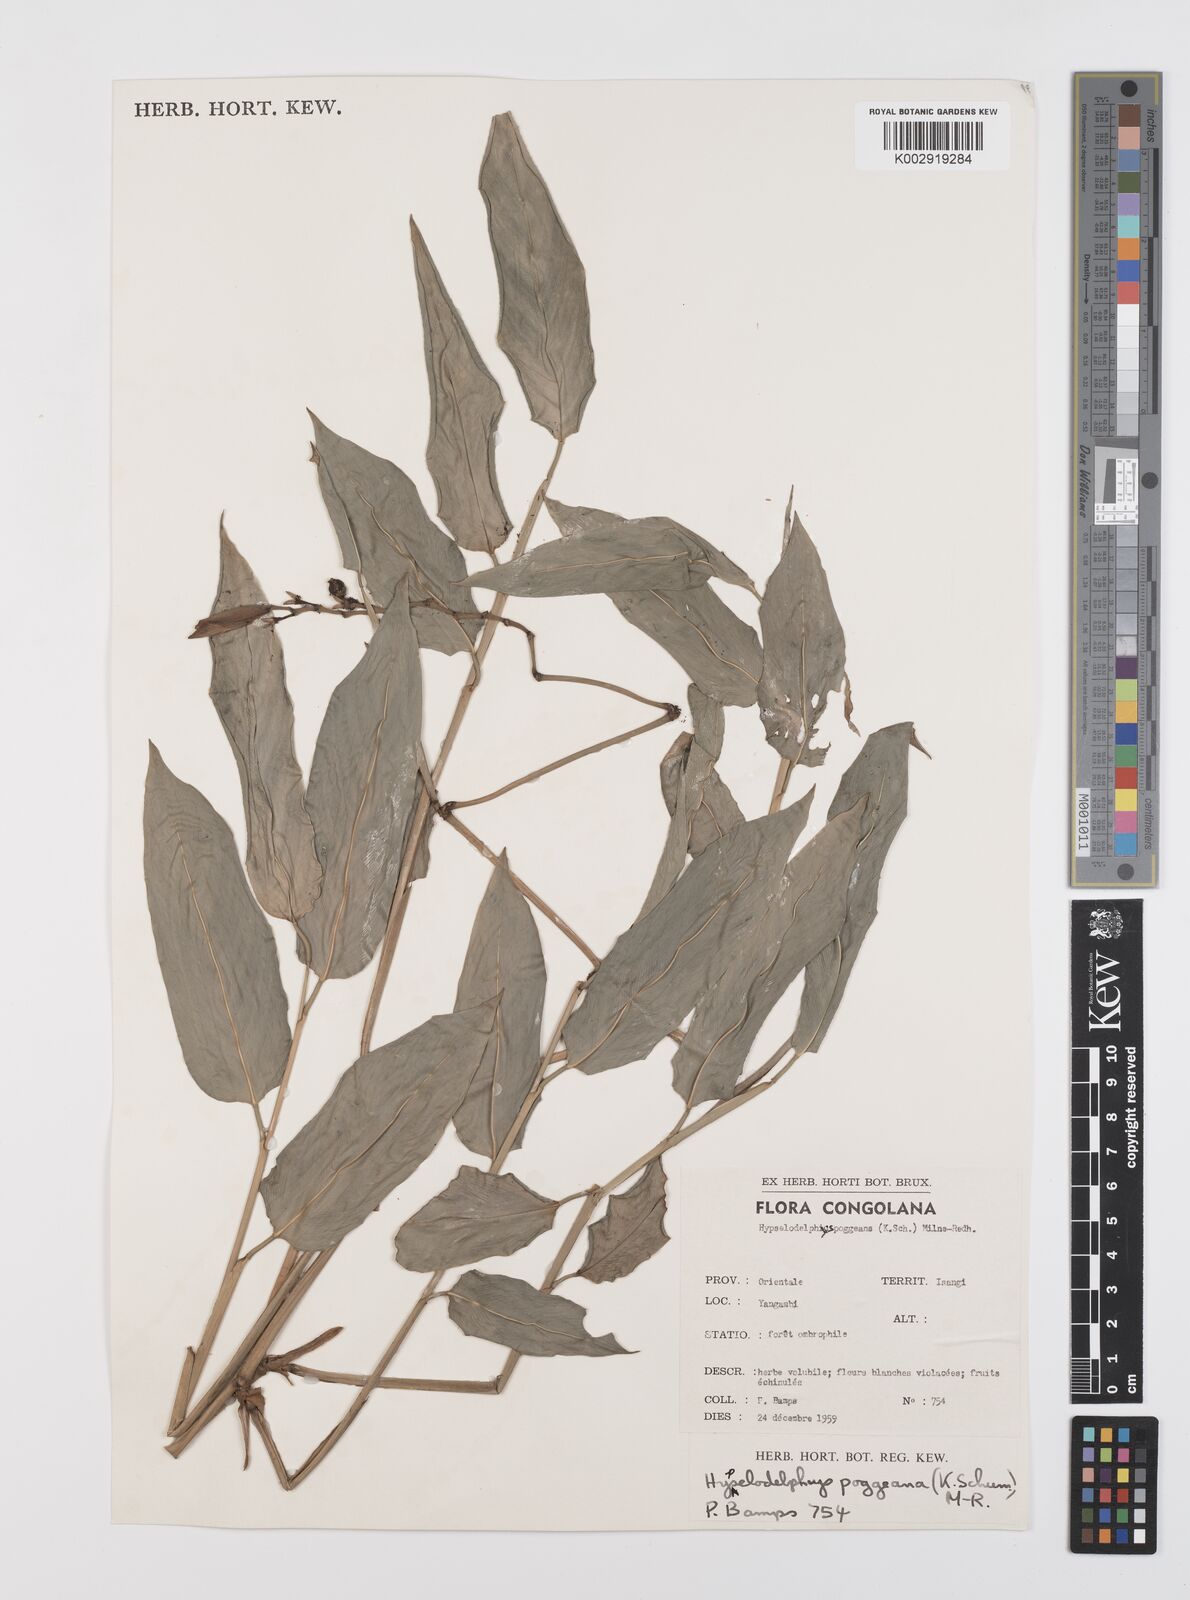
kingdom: Plantae
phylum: Tracheophyta
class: Liliopsida
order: Zingiberales
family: Marantaceae
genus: Hypselodelphys
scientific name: Hypselodelphys poggeana
